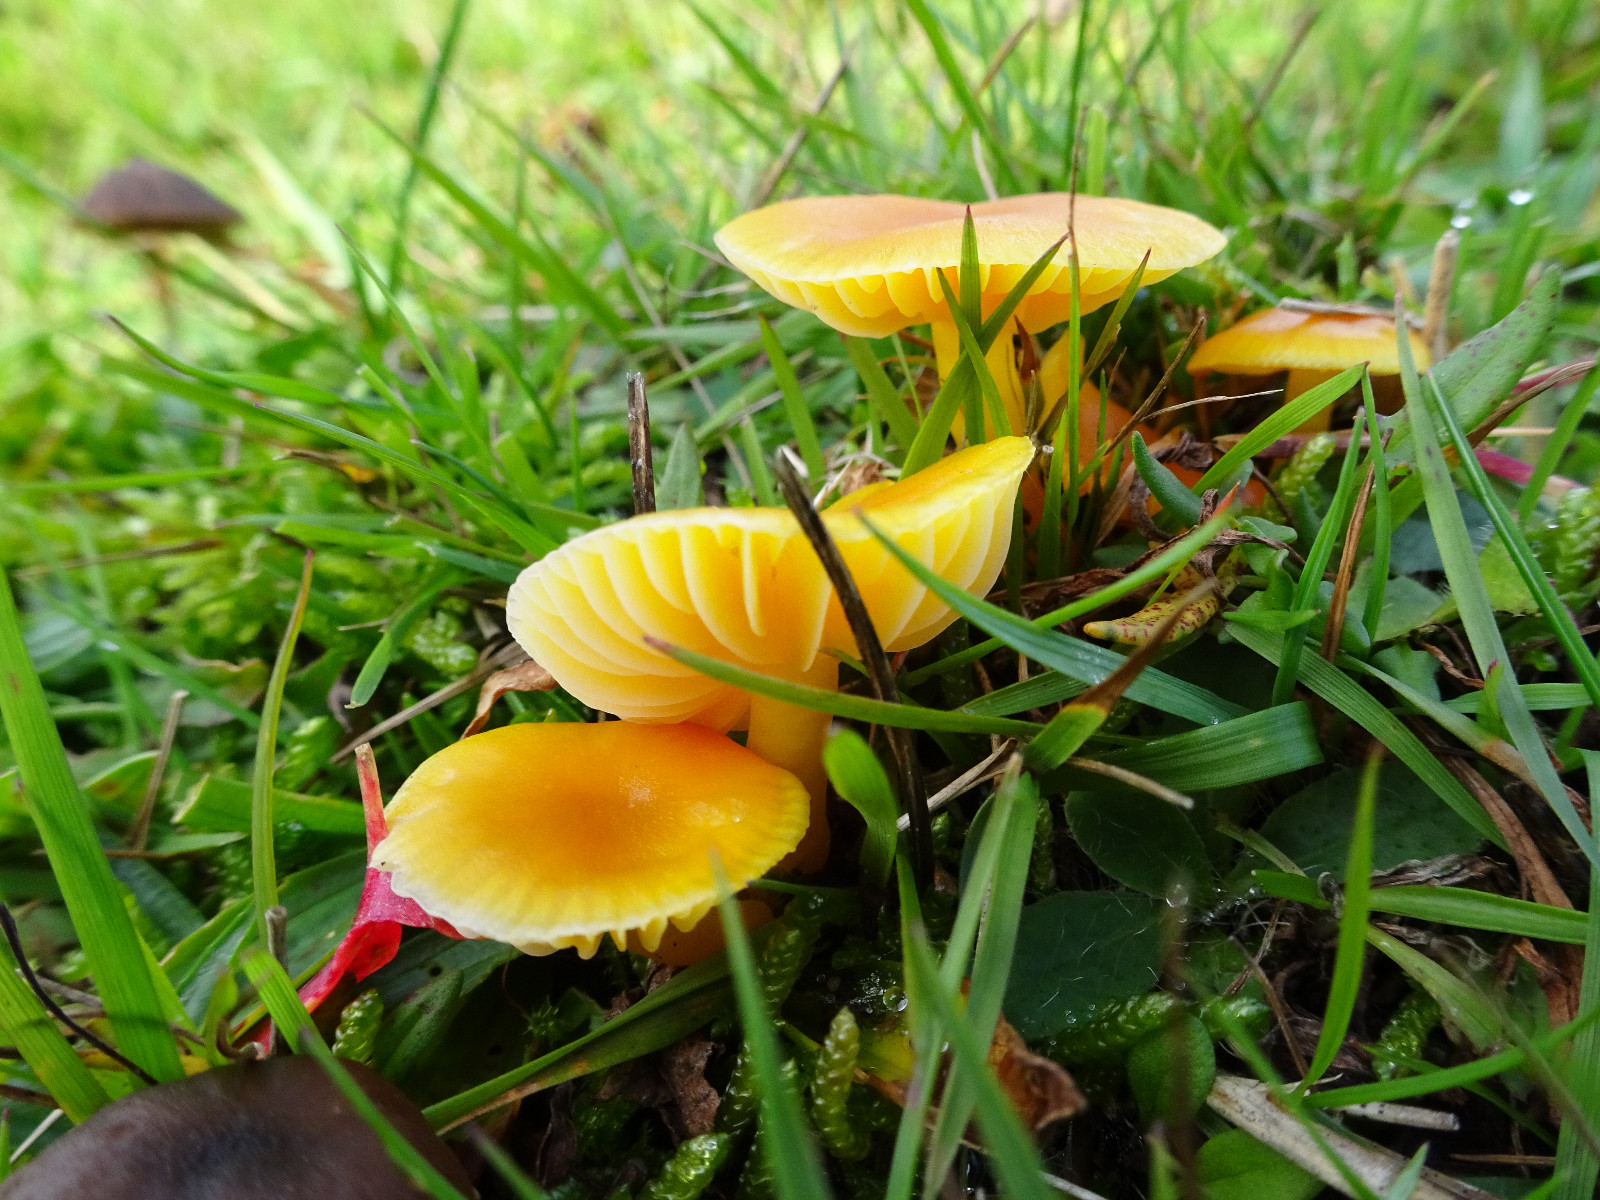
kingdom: Fungi
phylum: Basidiomycota
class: Agaricomycetes
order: Agaricales
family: Hygrophoraceae
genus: Hygrocybe
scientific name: Hygrocybe ceracea
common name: voksgul vokshat
